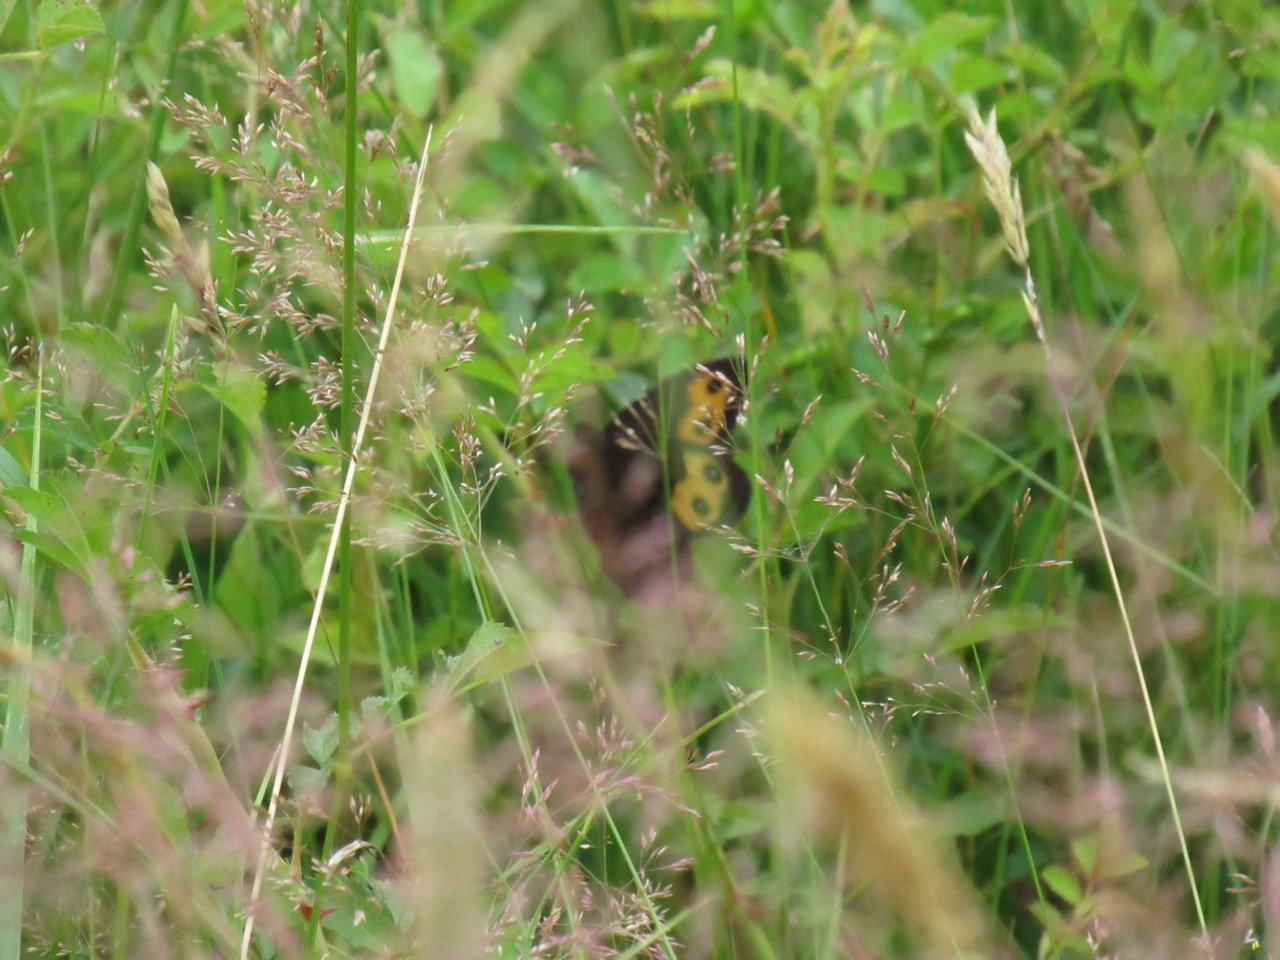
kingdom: Animalia
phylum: Arthropoda
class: Insecta
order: Lepidoptera
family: Nymphalidae
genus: Cercyonis
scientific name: Cercyonis pegala
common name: Common Wood-Nymph
